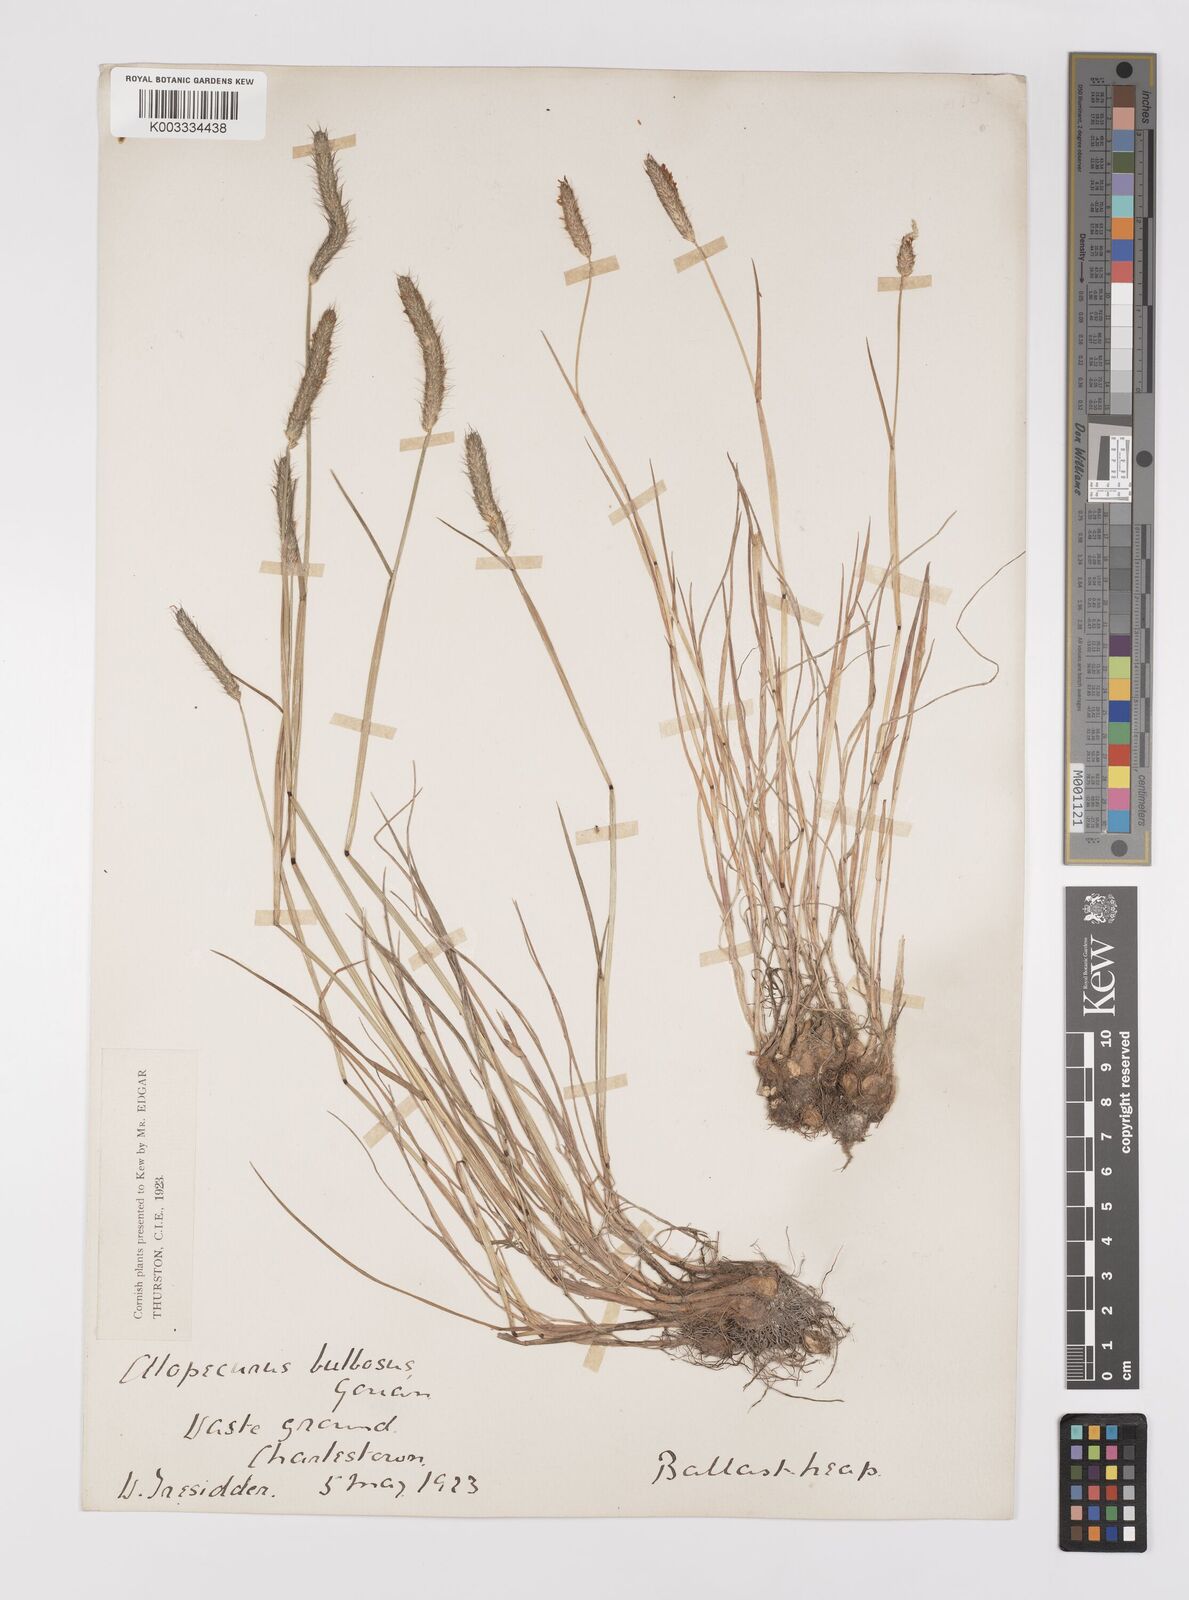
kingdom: Plantae
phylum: Tracheophyta
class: Liliopsida
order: Poales
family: Poaceae
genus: Alopecurus
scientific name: Alopecurus bulbosus
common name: Bulbous foxtail
